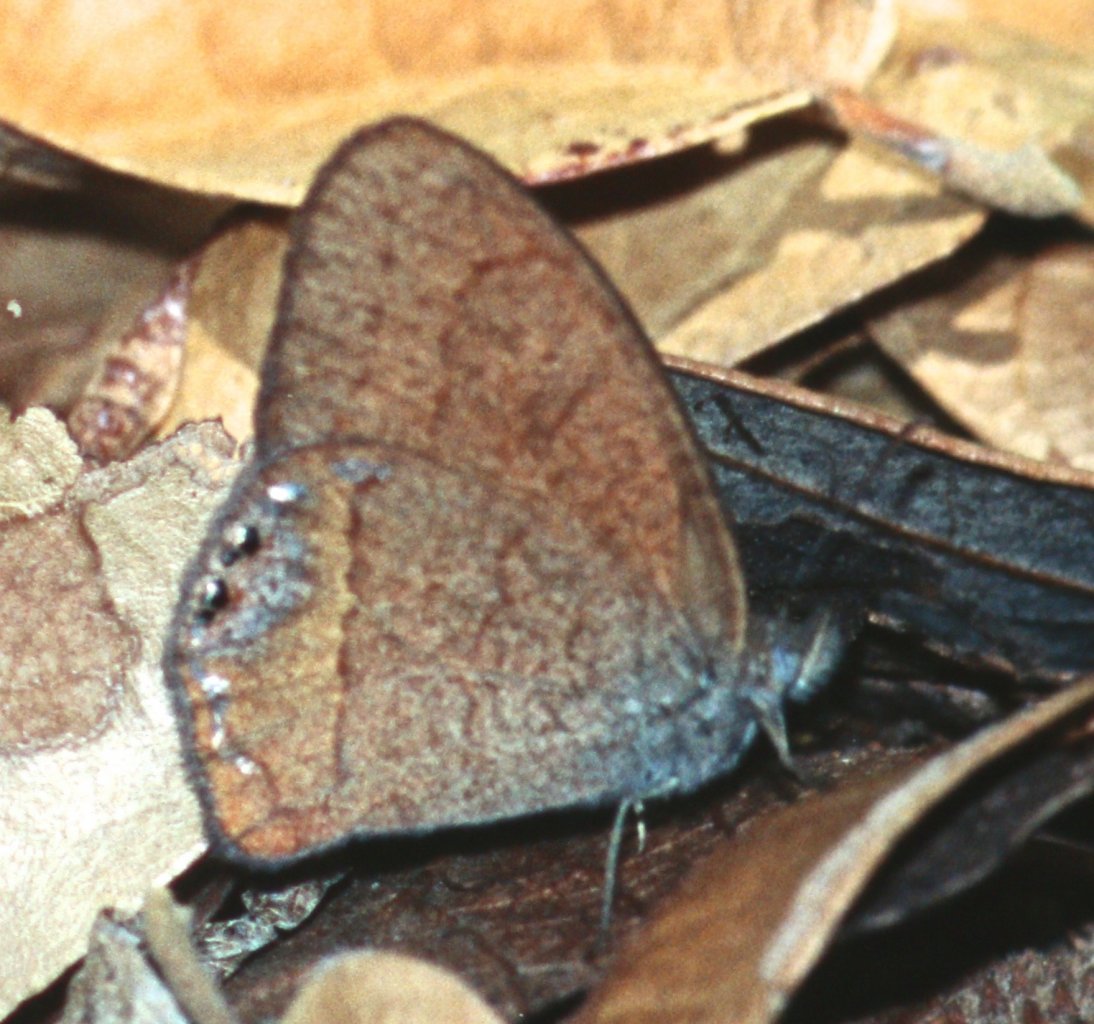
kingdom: Animalia
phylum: Arthropoda
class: Insecta
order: Lepidoptera
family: Nymphalidae
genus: Euptychia
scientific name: Euptychia pyracmon
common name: Nabokov's Satyr
